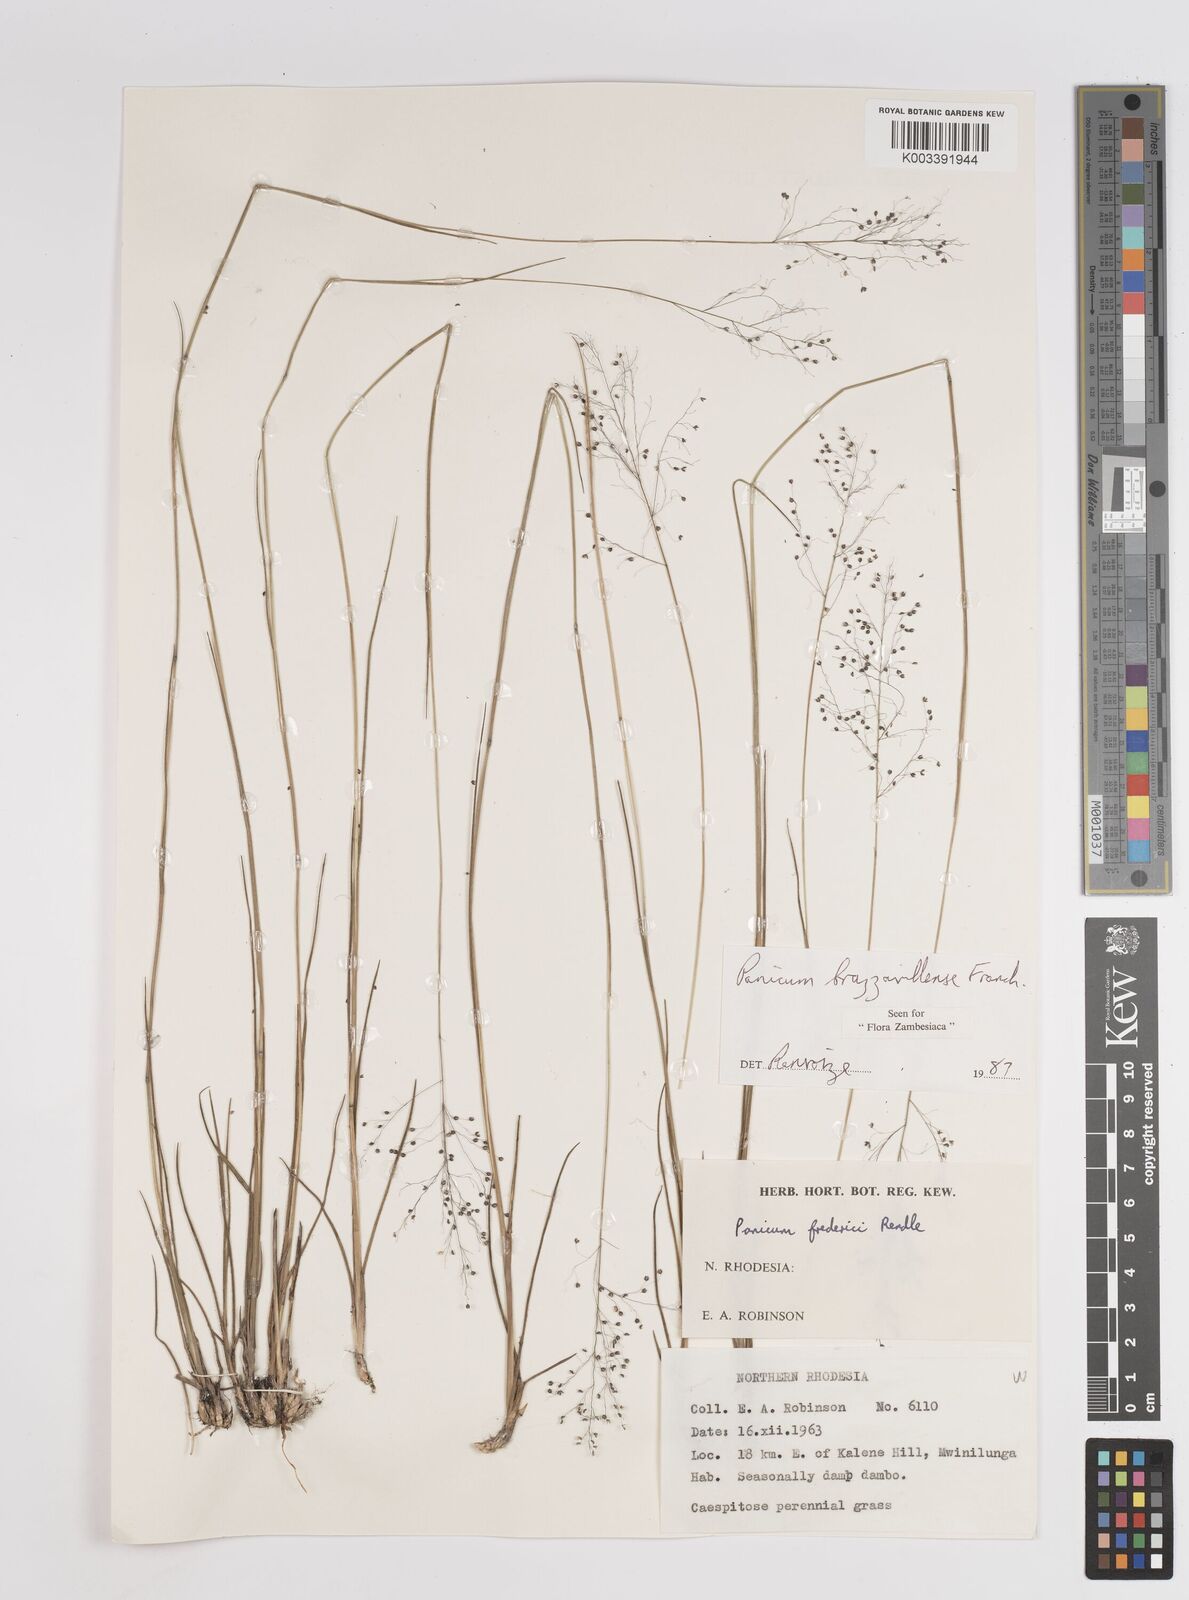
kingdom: Plantae
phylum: Tracheophyta
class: Liliopsida
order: Poales
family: Poaceae
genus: Trichanthecium
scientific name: Trichanthecium brazzavillense
